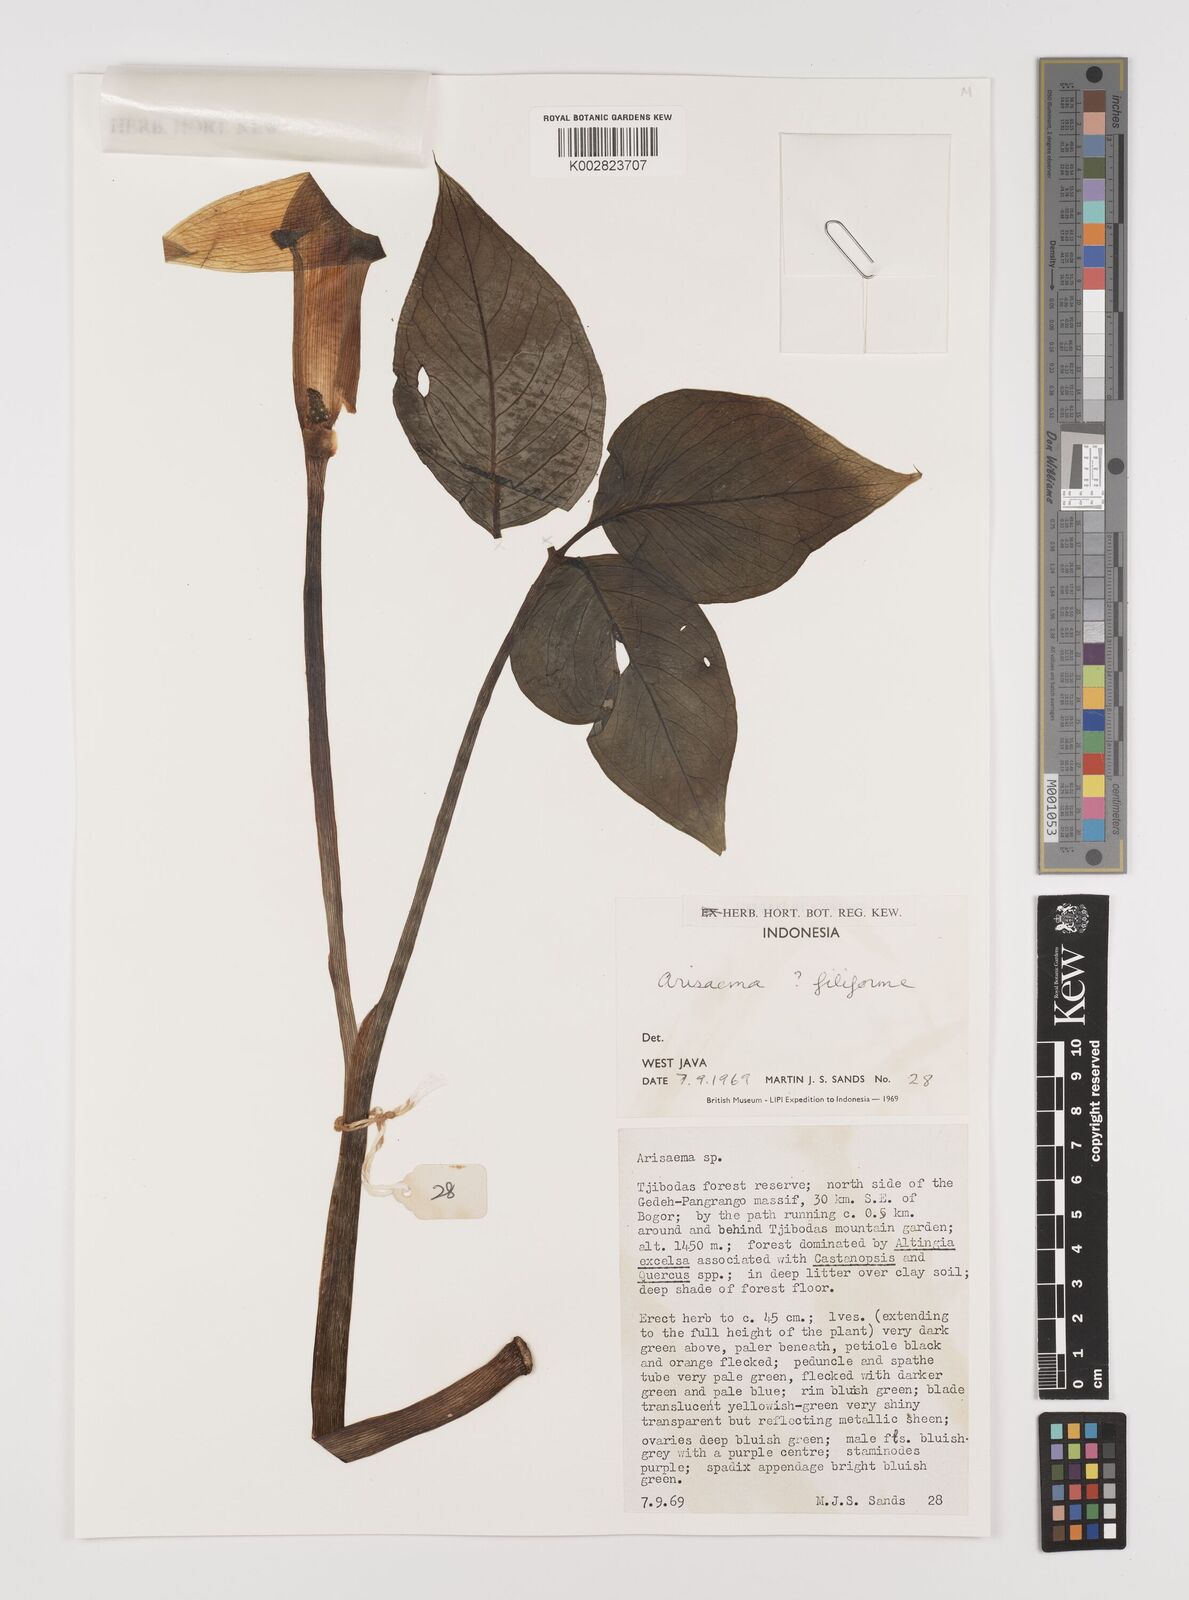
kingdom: Plantae
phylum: Tracheophyta
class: Liliopsida
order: Alismatales
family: Araceae
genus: Arisaema
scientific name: Arisaema filiforme
